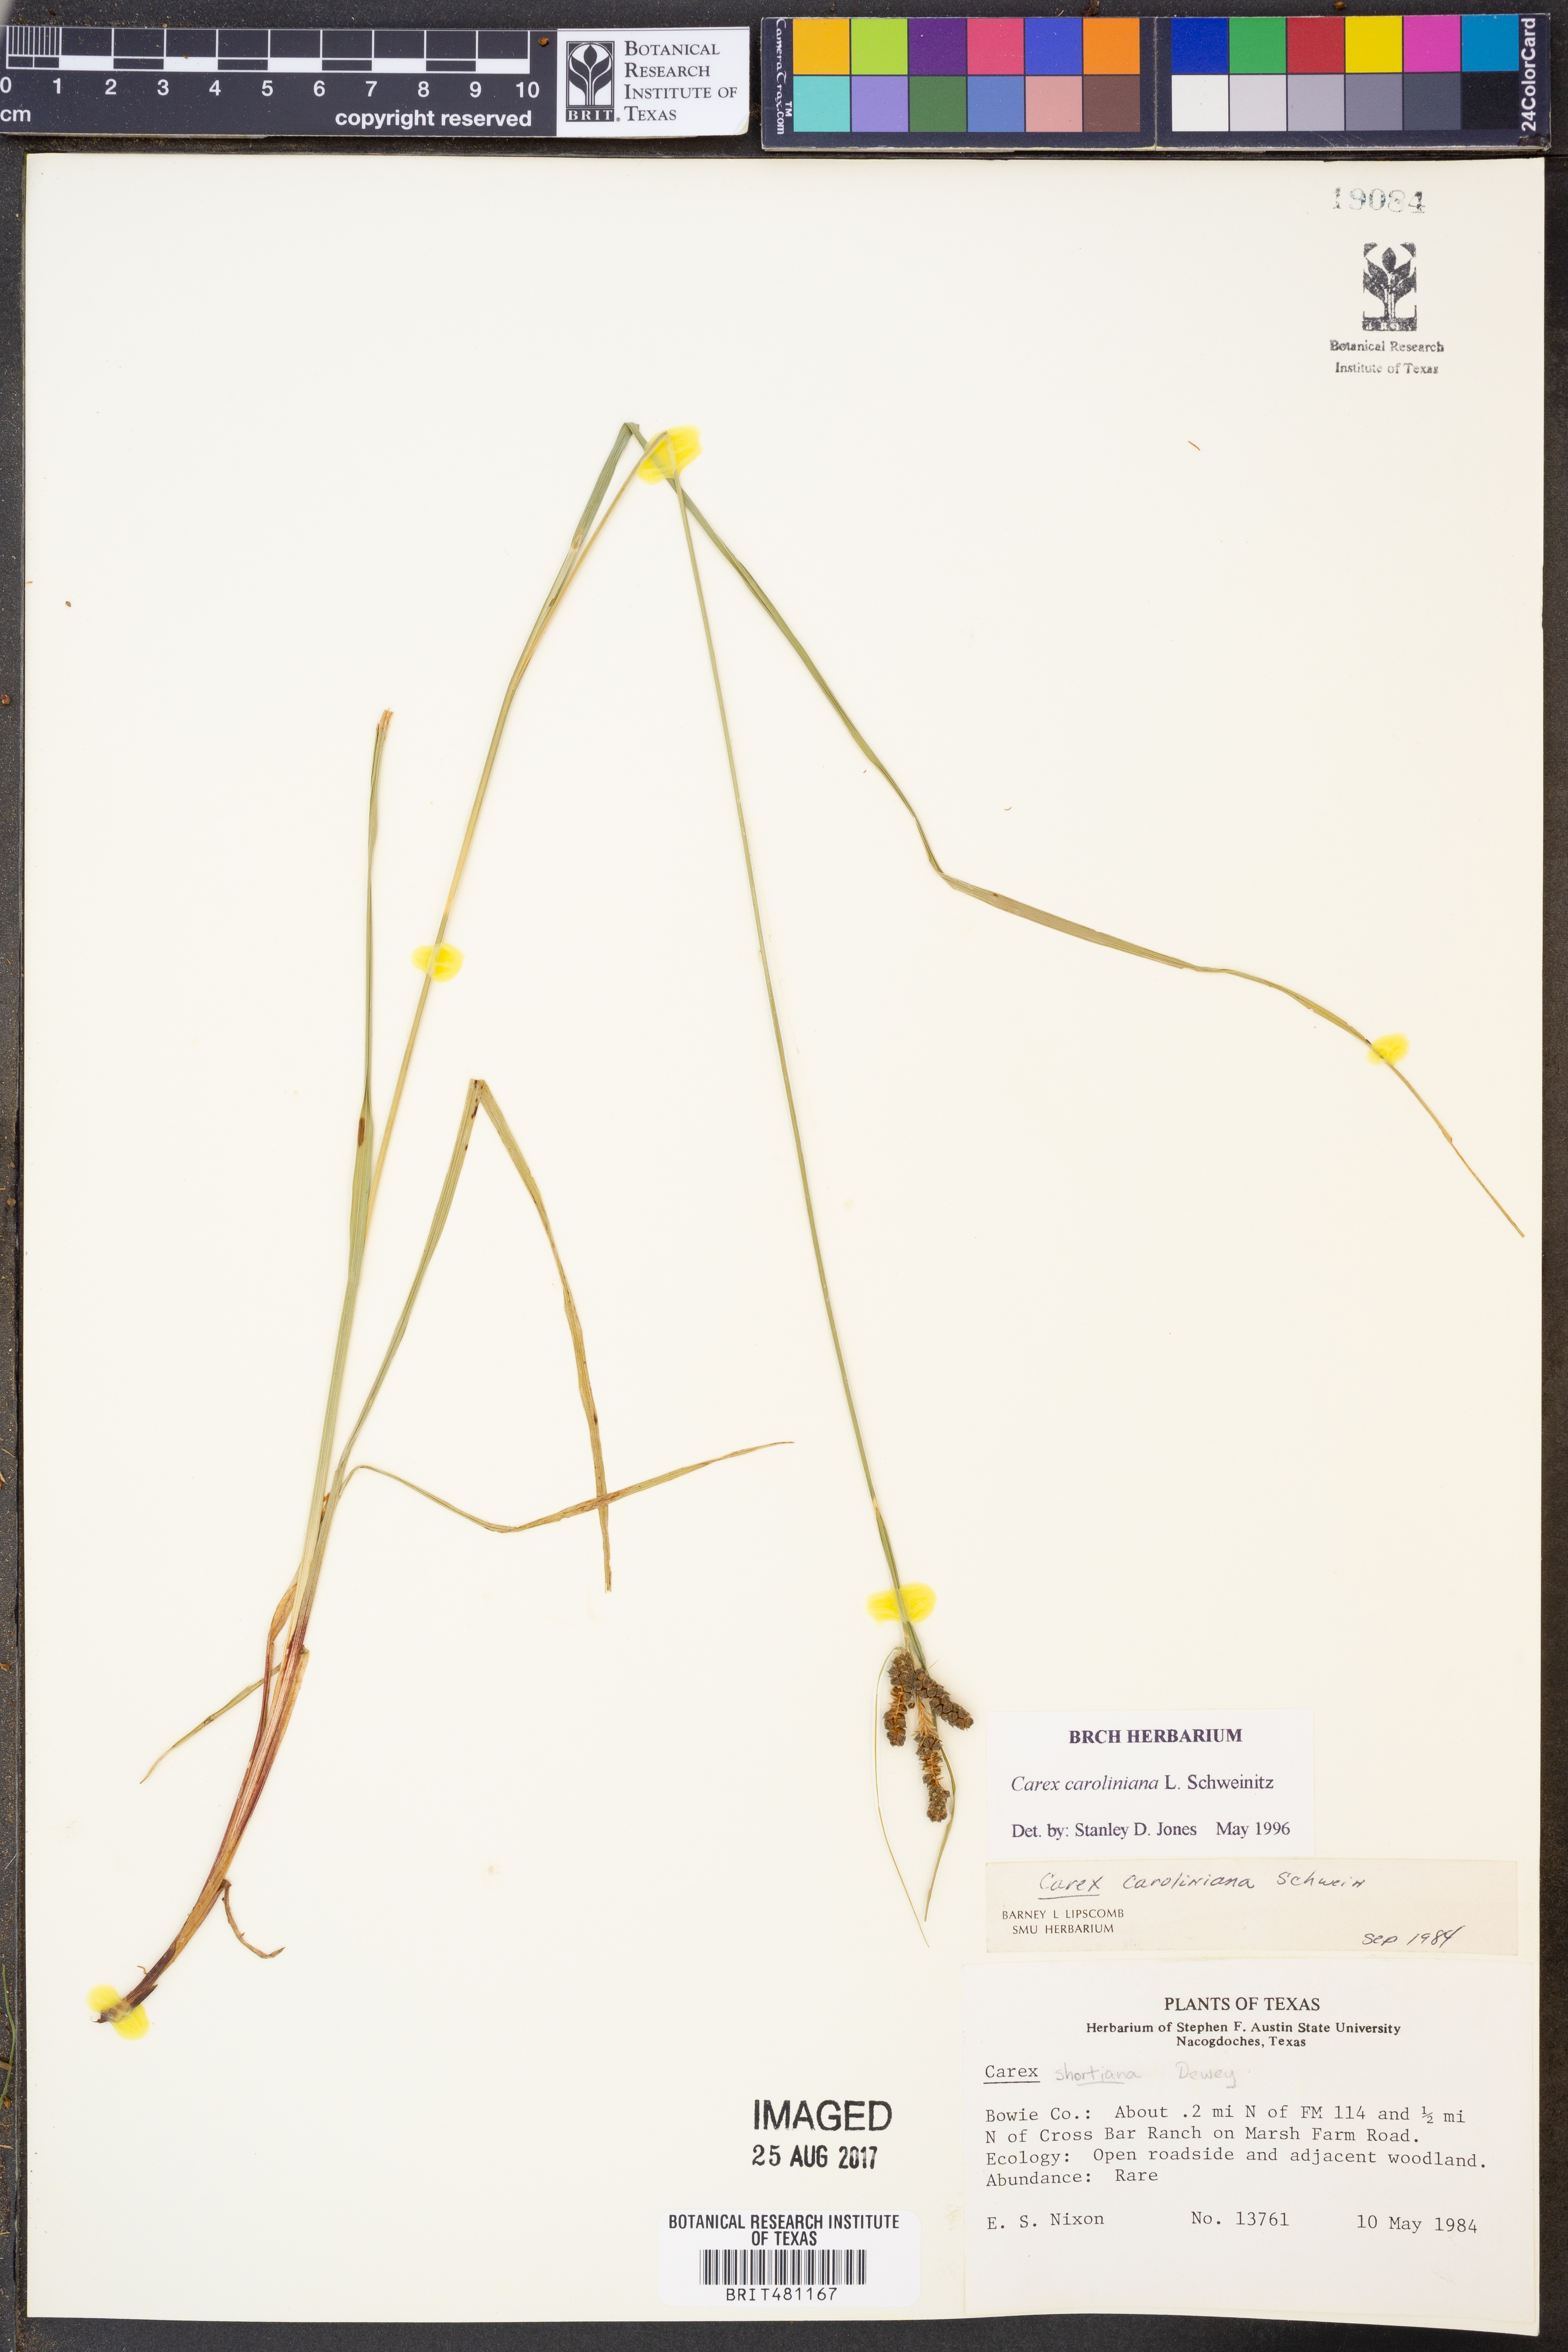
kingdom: Plantae
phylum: Tracheophyta
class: Liliopsida
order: Poales
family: Cyperaceae
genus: Carex
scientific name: Carex caroliniana
